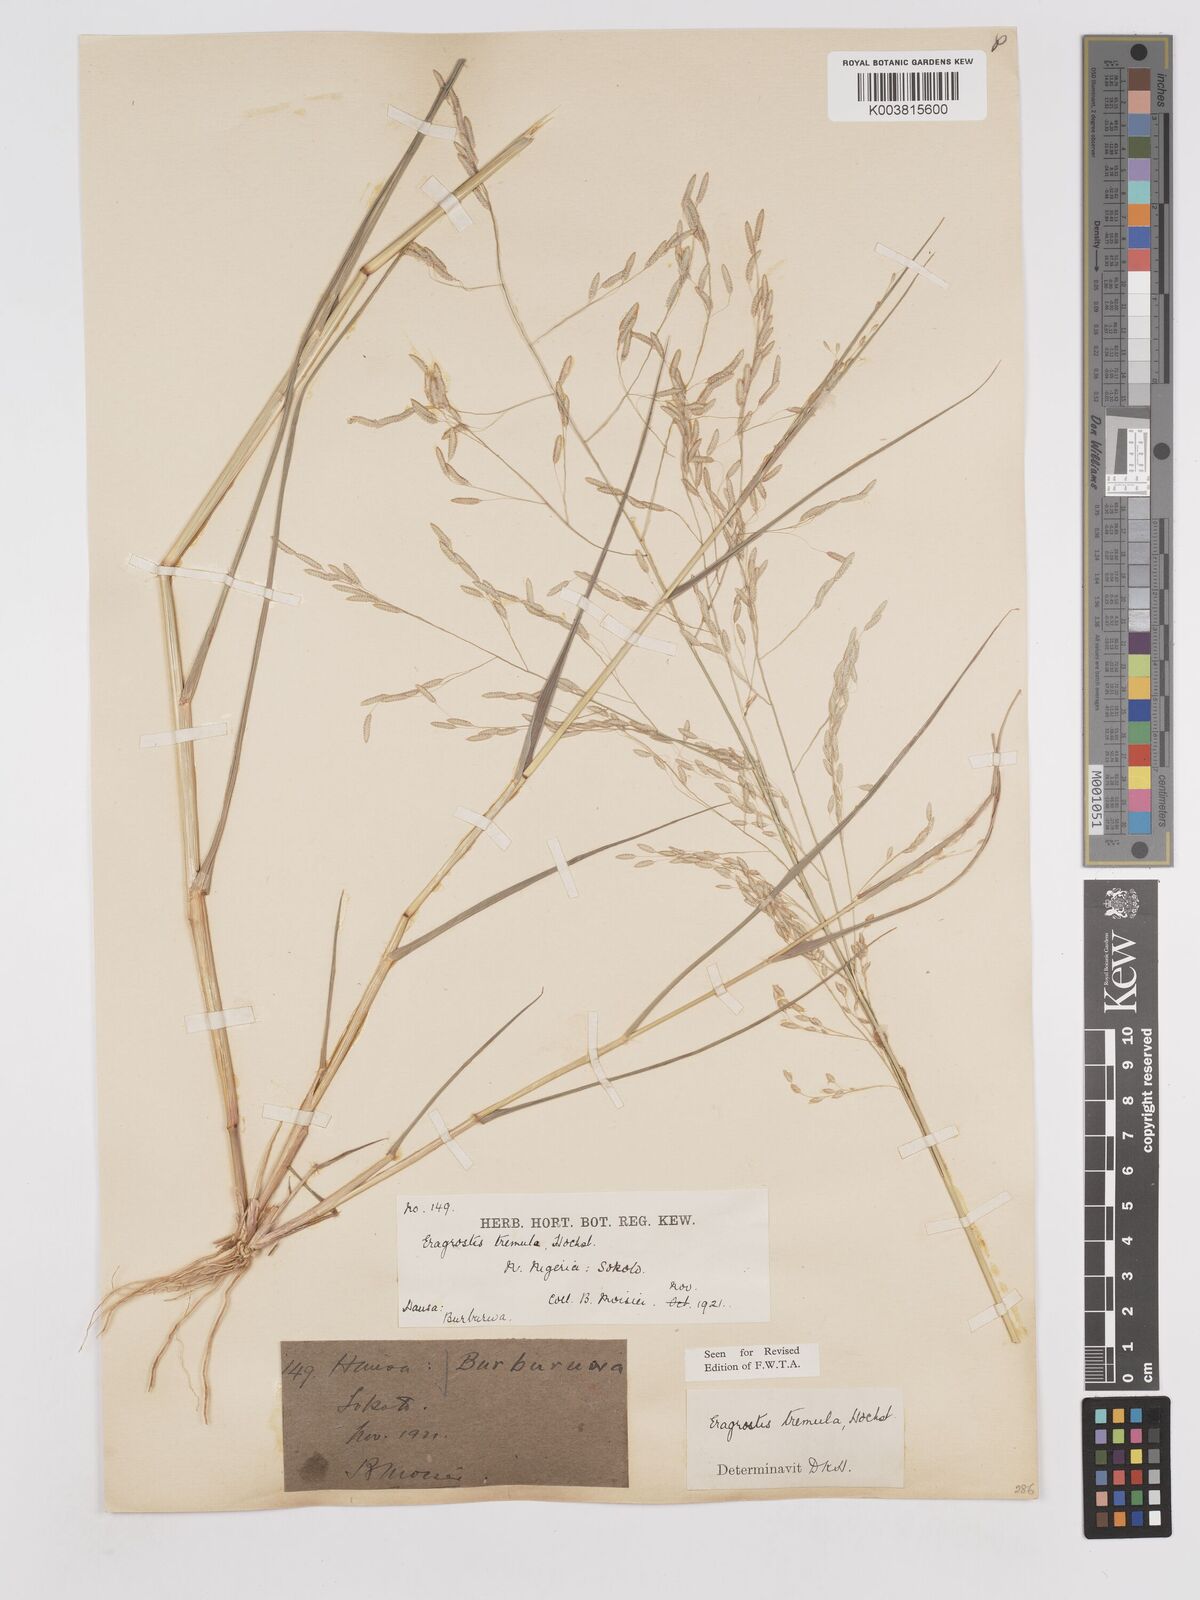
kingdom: Plantae
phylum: Tracheophyta
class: Liliopsida
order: Poales
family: Poaceae
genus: Eragrostis
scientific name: Eragrostis tremula
